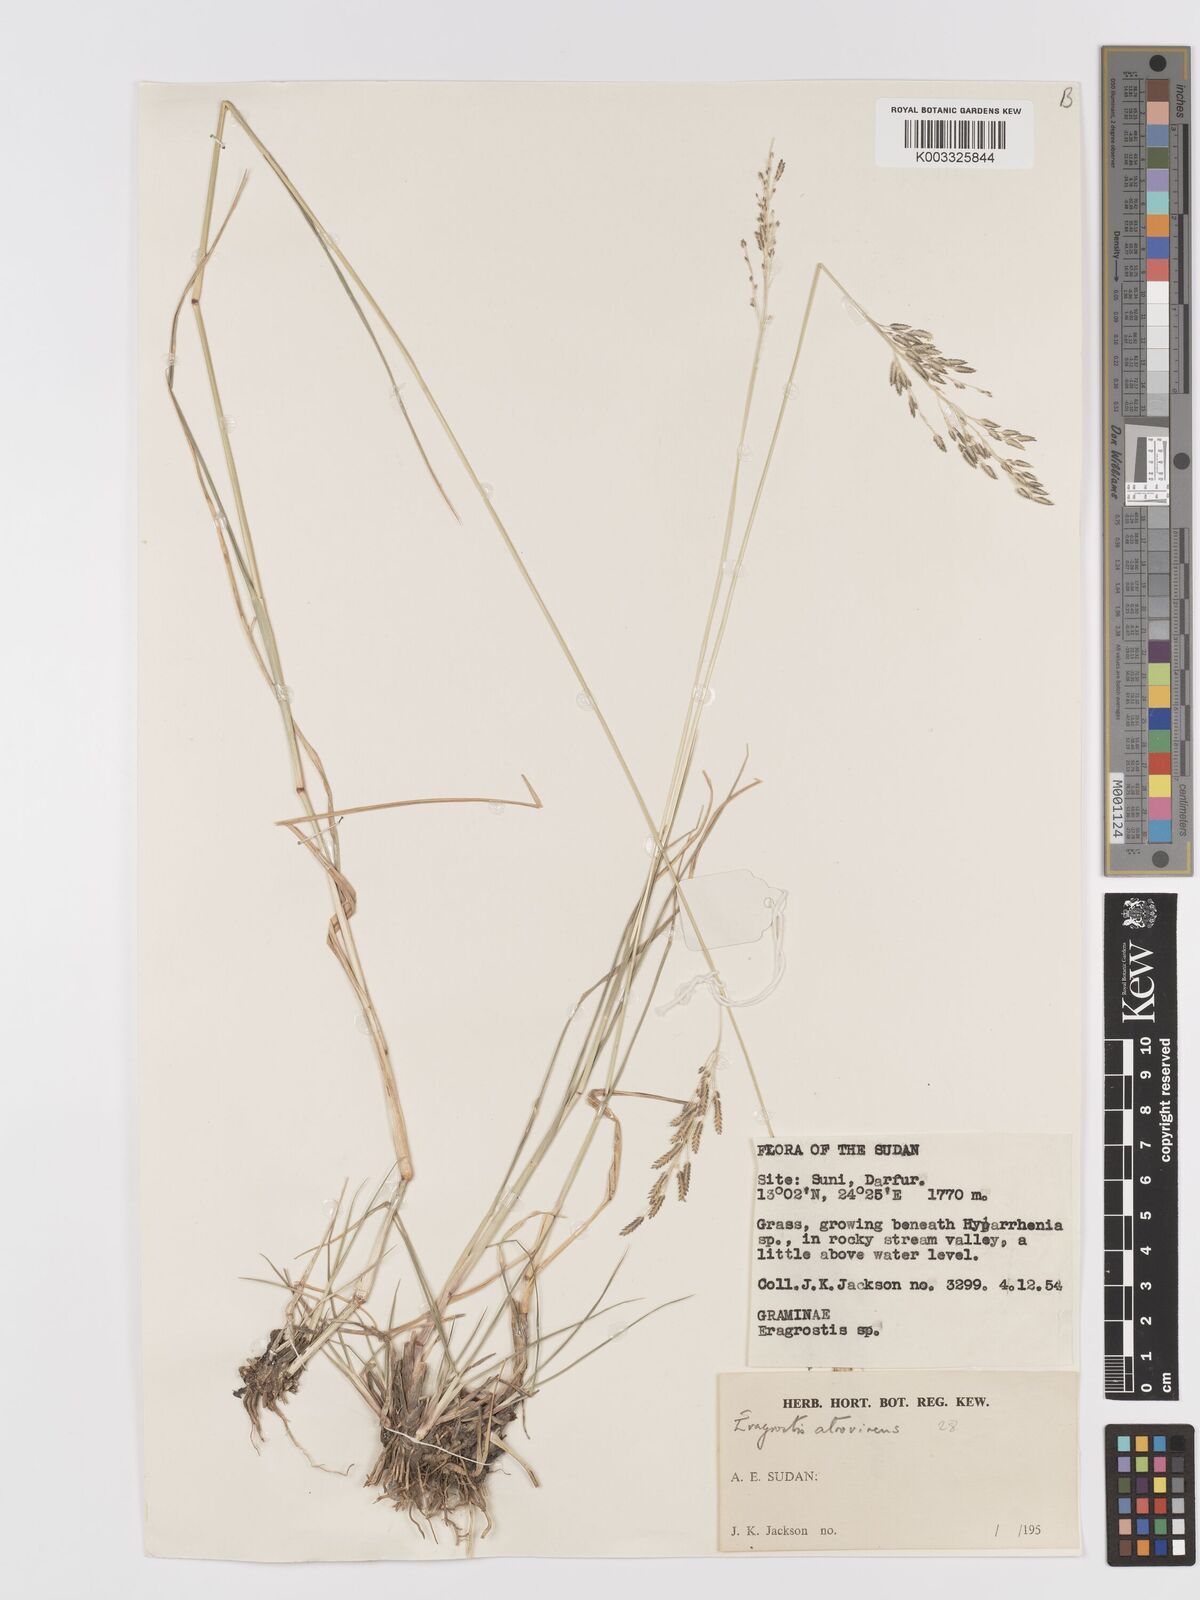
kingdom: Plantae
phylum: Tracheophyta
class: Liliopsida
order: Poales
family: Poaceae
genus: Eragrostis
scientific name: Eragrostis atrovirens
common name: Thalia lovegrass
